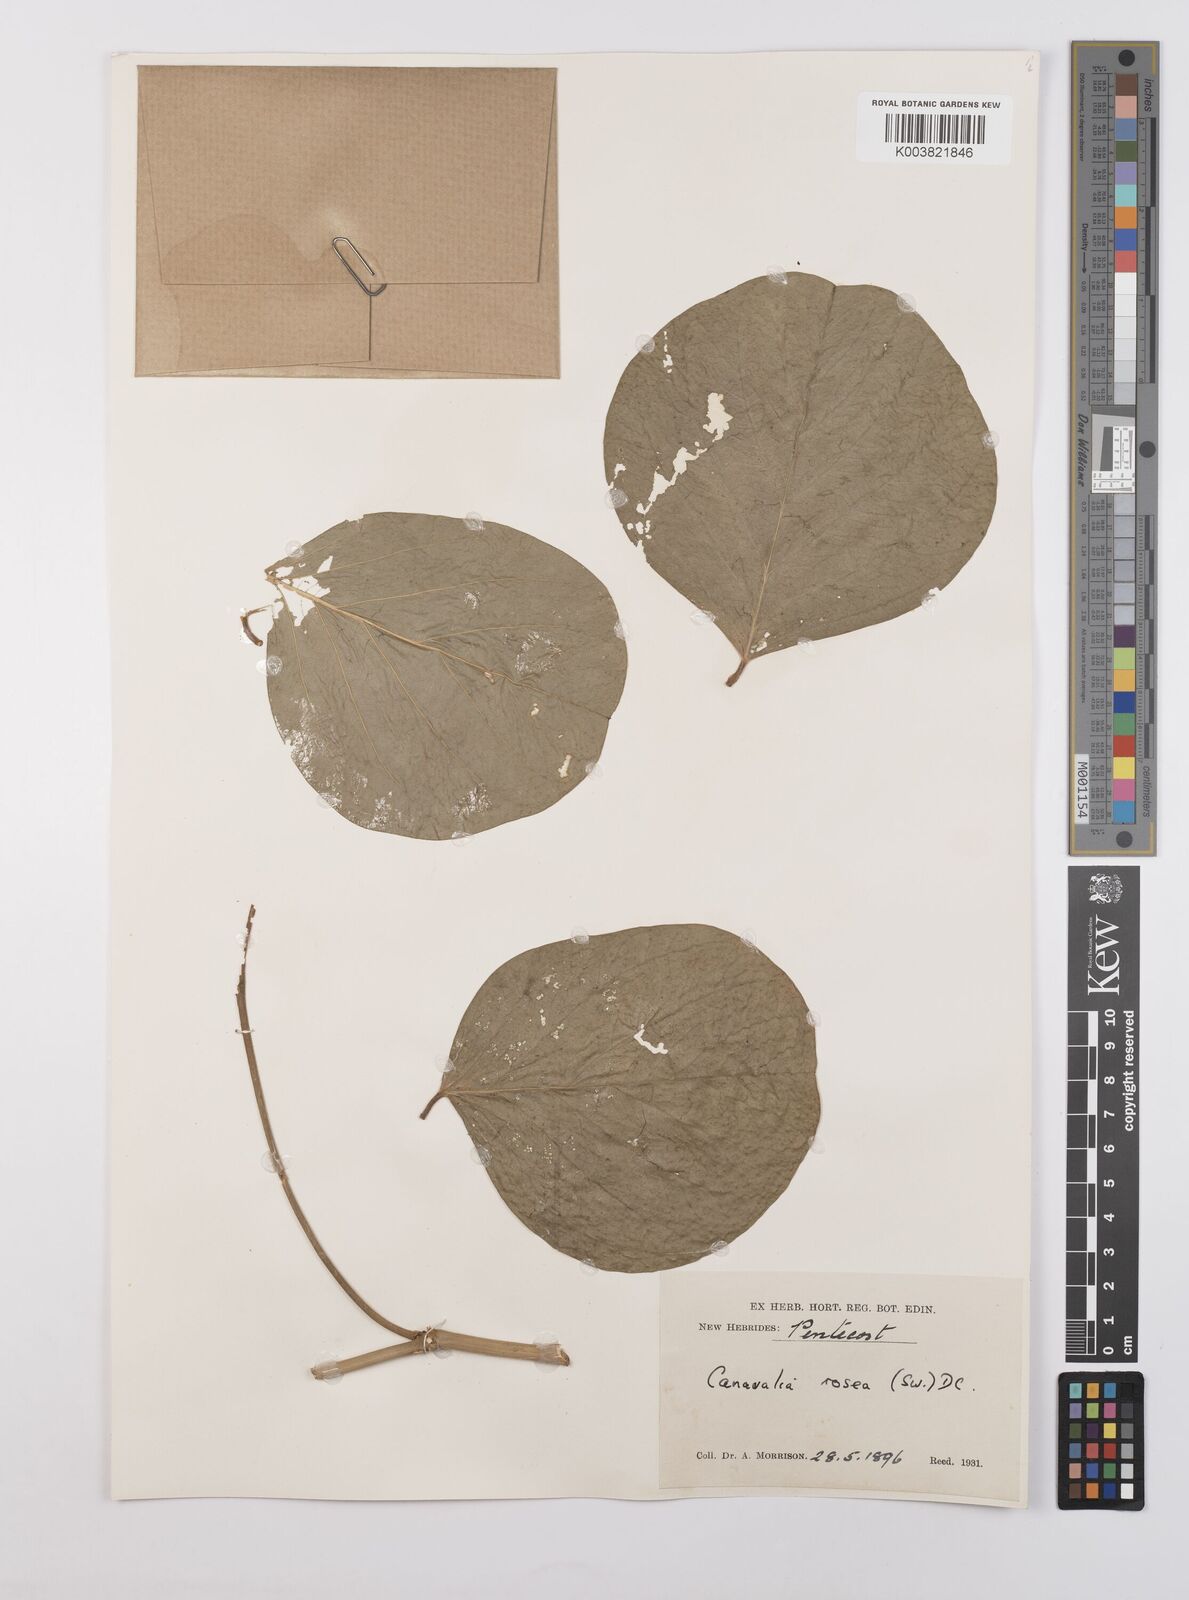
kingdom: Plantae
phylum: Tracheophyta
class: Magnoliopsida
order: Fabales
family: Fabaceae
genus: Canavalia
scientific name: Canavalia rosea
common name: Beach-bean
